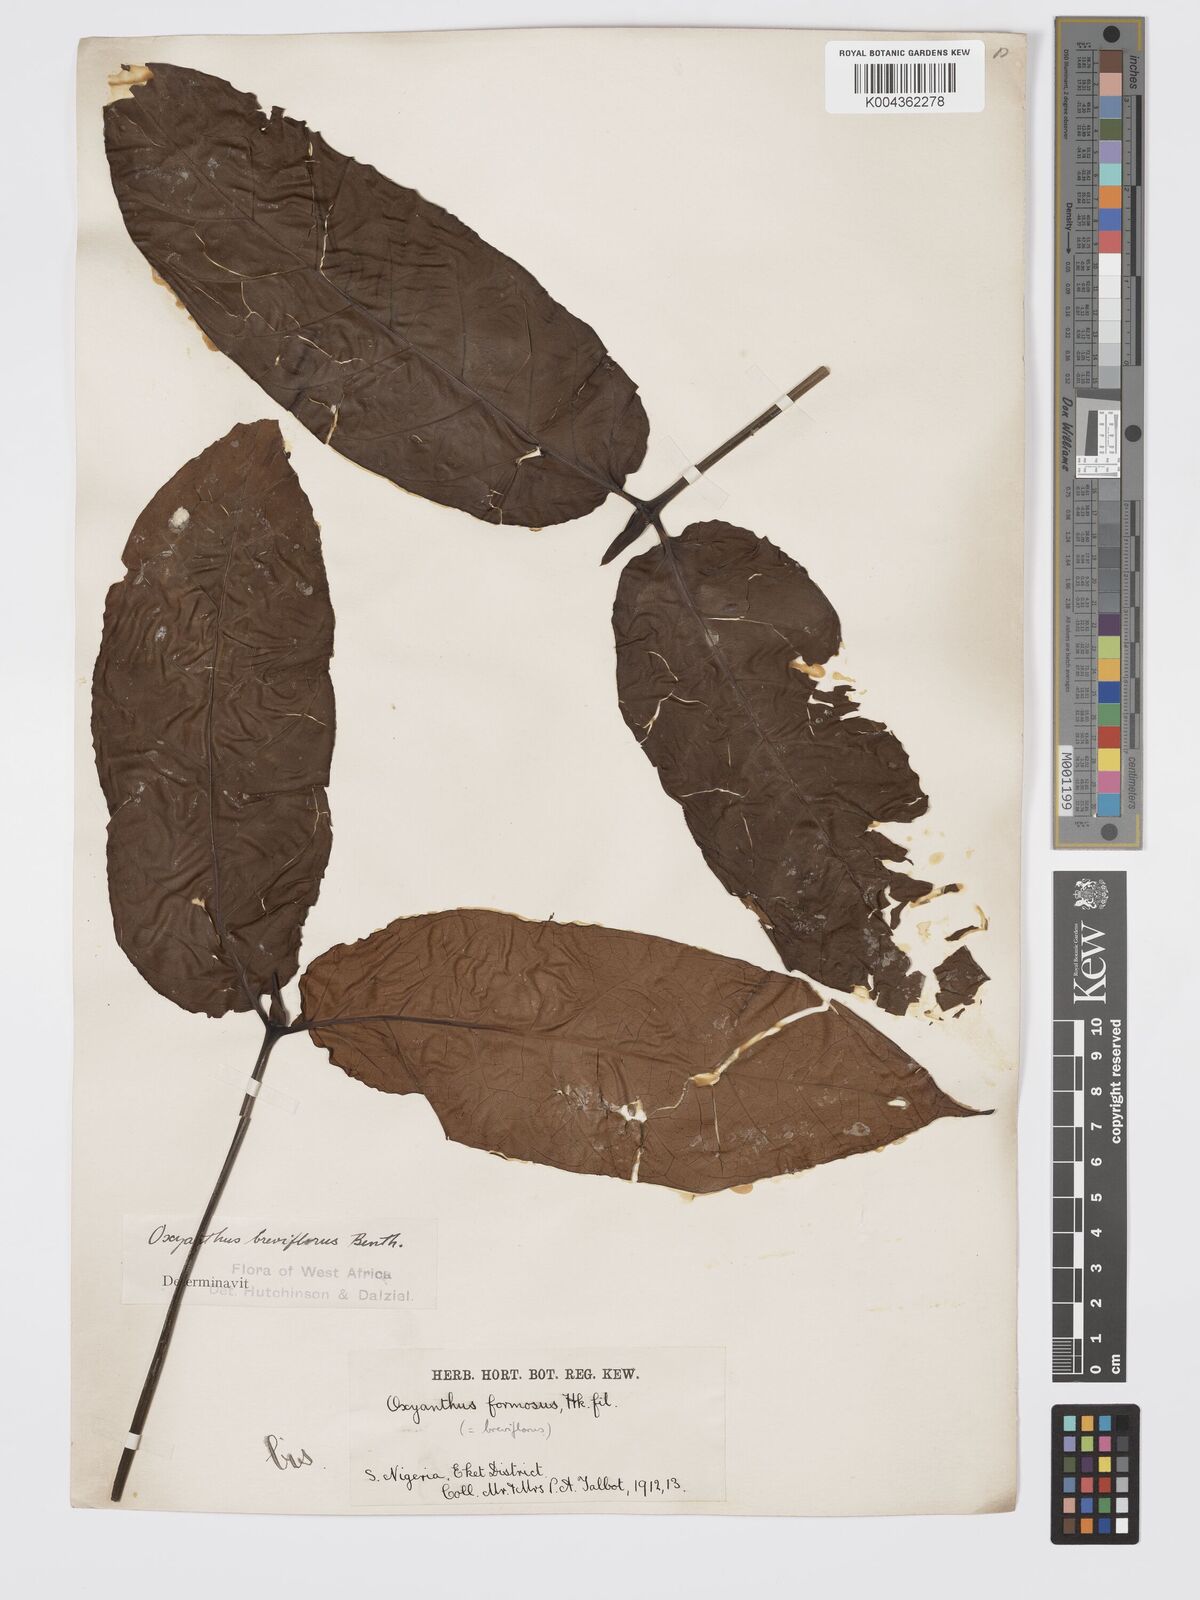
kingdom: Plantae
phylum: Tracheophyta
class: Magnoliopsida
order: Gentianales
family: Rubiaceae
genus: Oxyanthus
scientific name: Oxyanthus formosus
